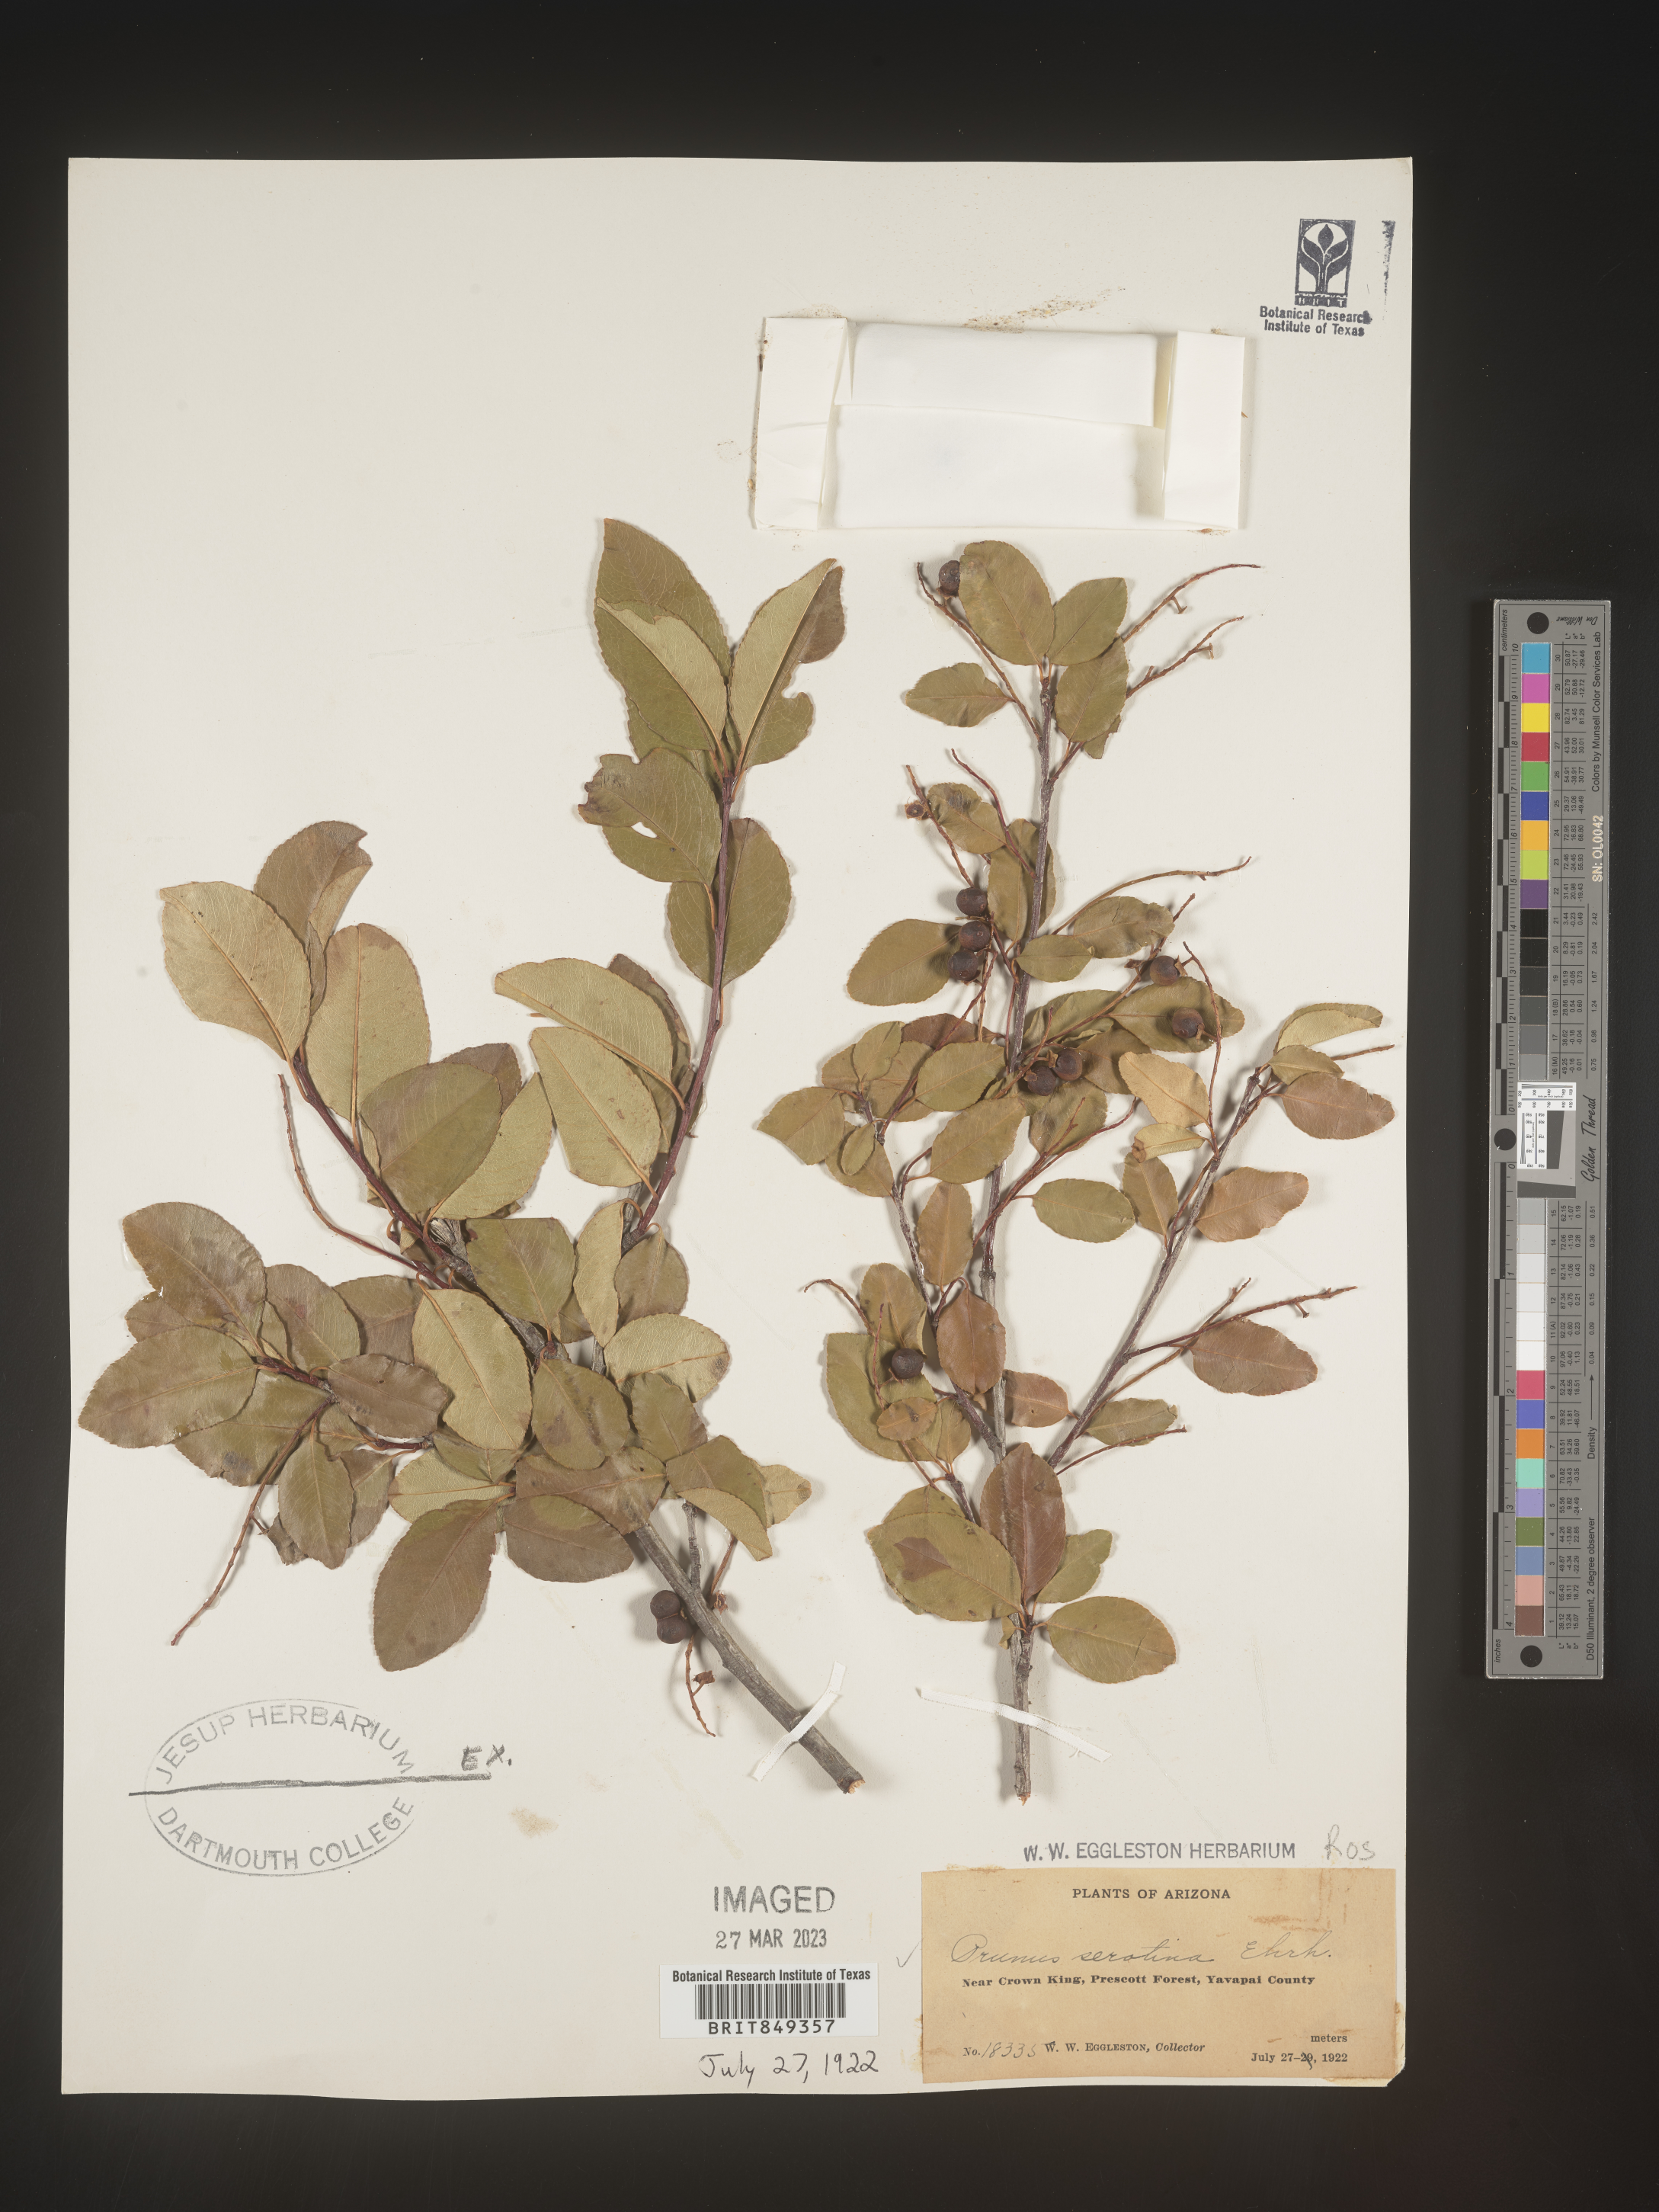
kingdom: Plantae
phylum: Tracheophyta
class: Magnoliopsida
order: Rosales
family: Rosaceae
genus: Prunus
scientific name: Prunus serotina
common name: Black cherry
